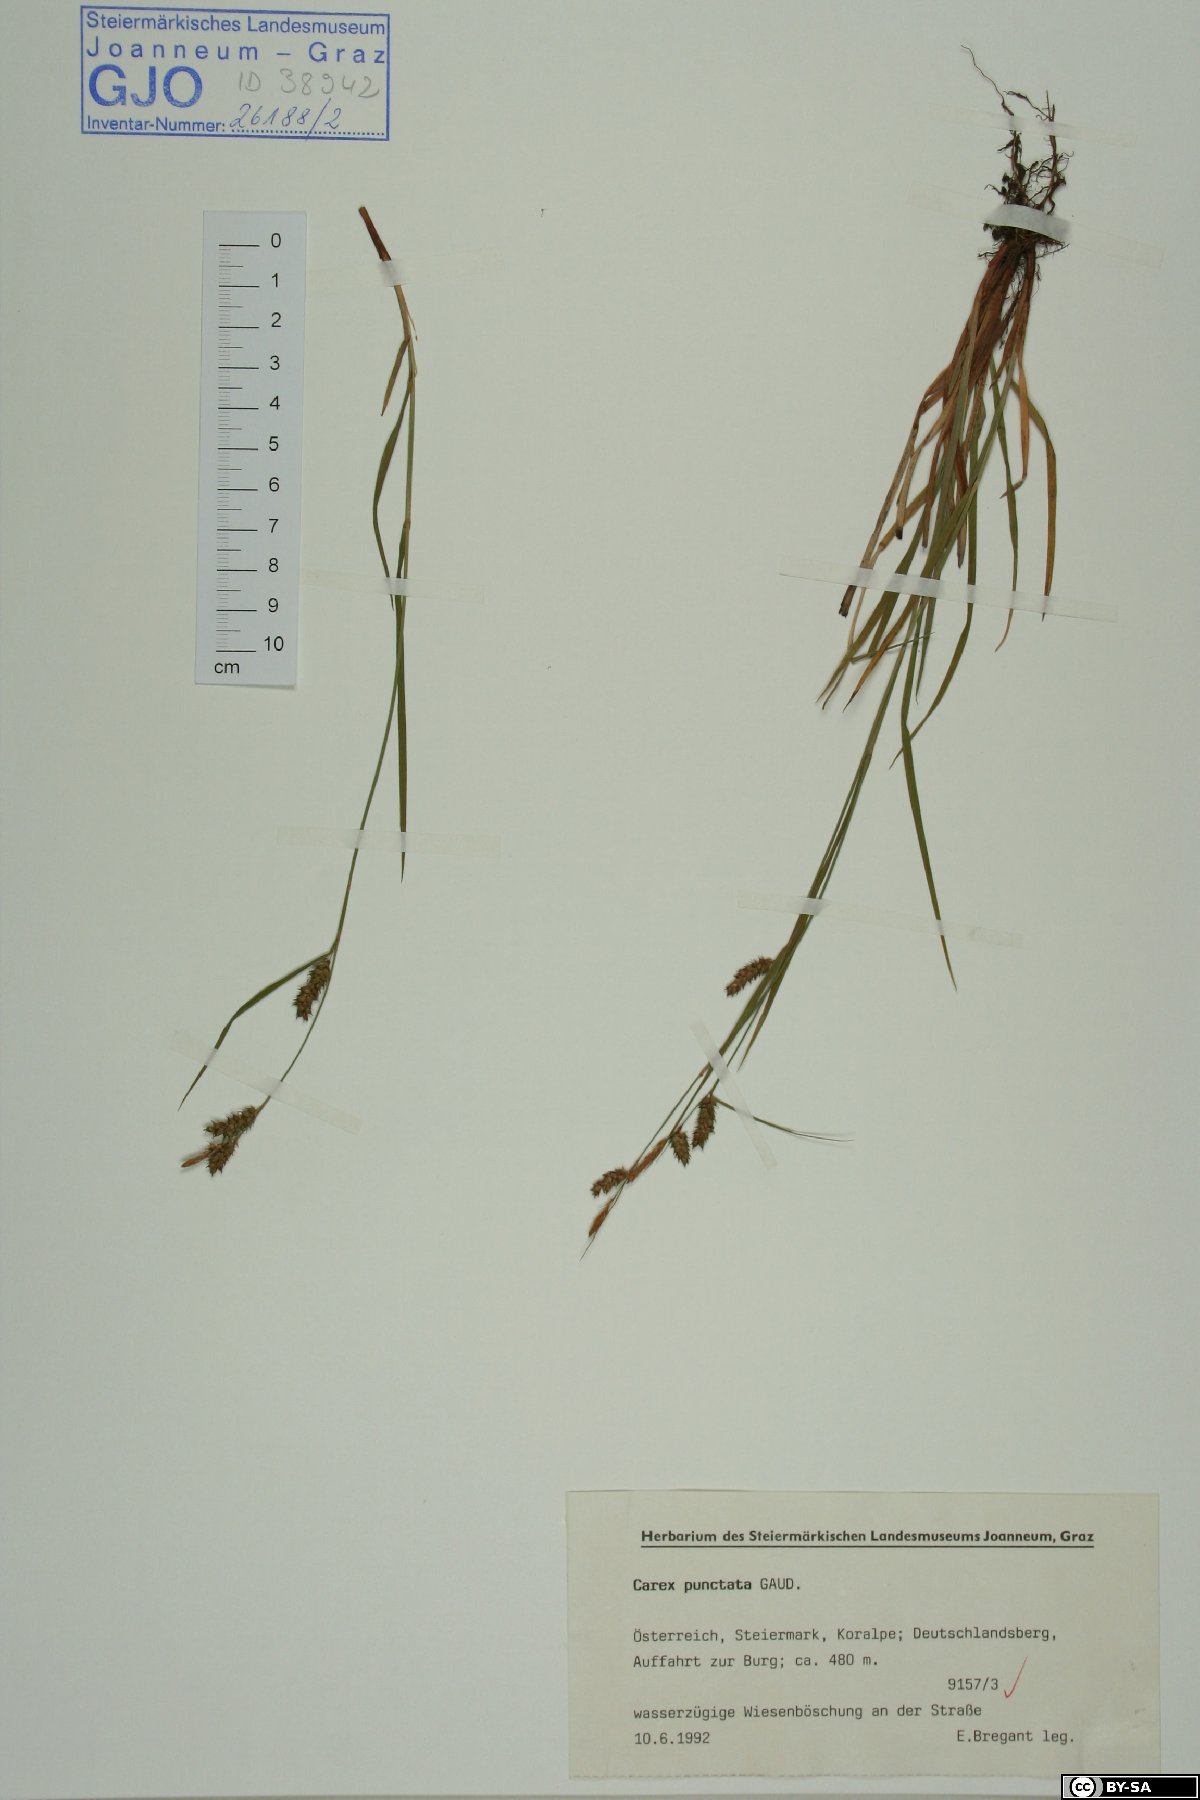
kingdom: Plantae
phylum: Tracheophyta
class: Liliopsida
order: Poales
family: Cyperaceae
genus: Carex
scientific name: Carex punctata
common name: Dotted sedge
